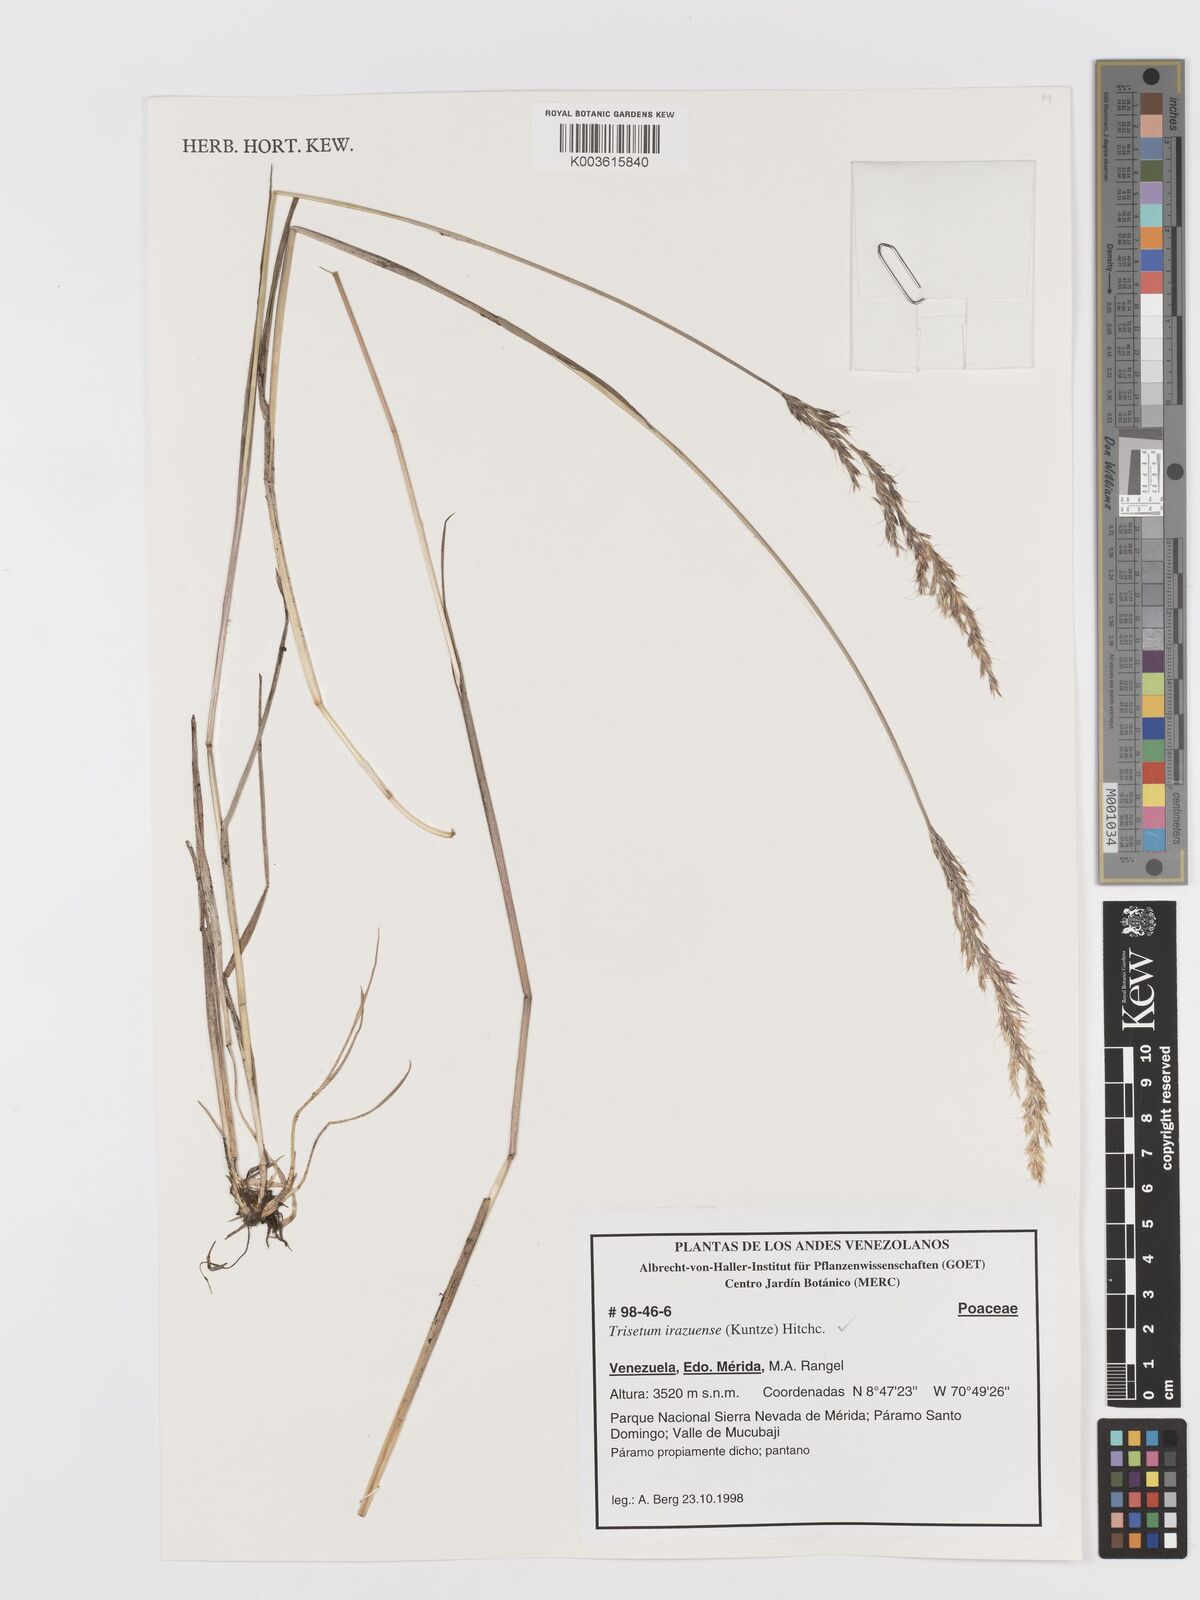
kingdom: Plantae
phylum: Tracheophyta
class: Liliopsida
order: Poales
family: Poaceae
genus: Peyritschia
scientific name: Peyritschia irazuensis
